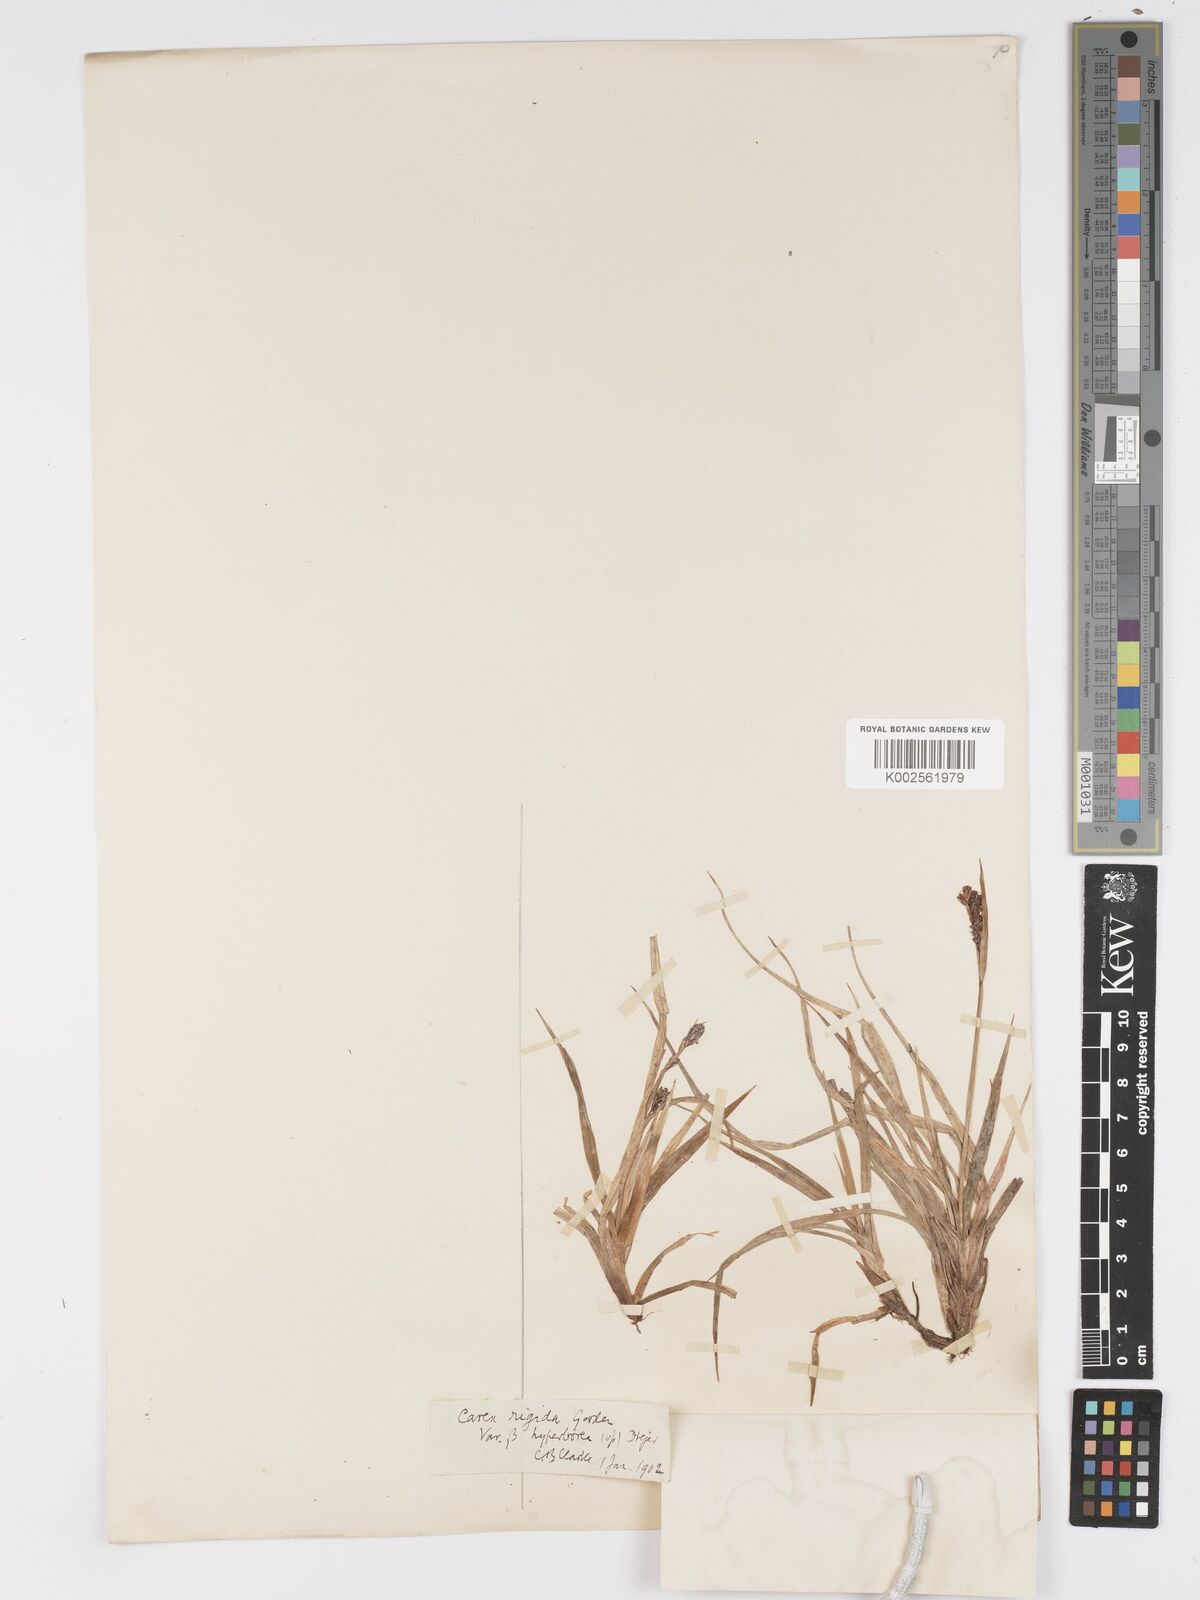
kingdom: Plantae
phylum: Tracheophyta
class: Liliopsida
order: Poales
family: Cyperaceae
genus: Carex
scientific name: Carex bigelowii
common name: Stiff sedge
